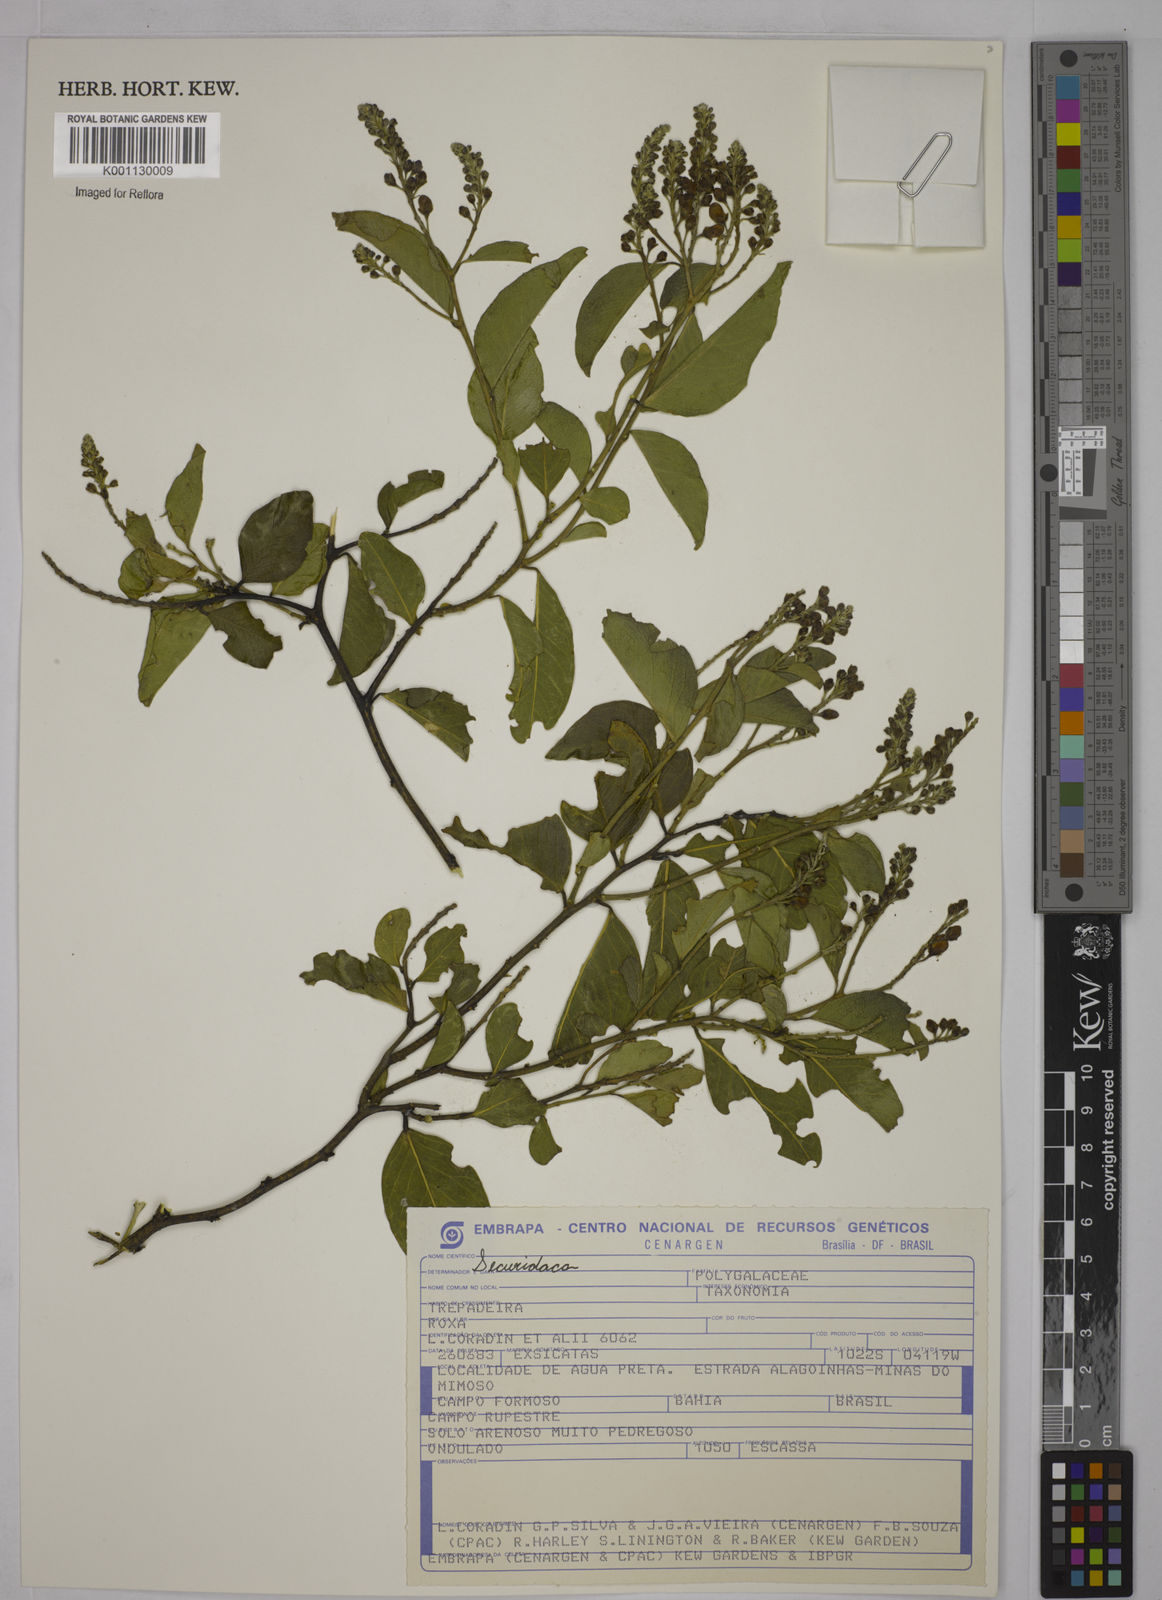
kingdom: Plantae
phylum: Tracheophyta
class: Magnoliopsida
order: Fabales
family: Polygalaceae
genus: Securidaca
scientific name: Securidaca
